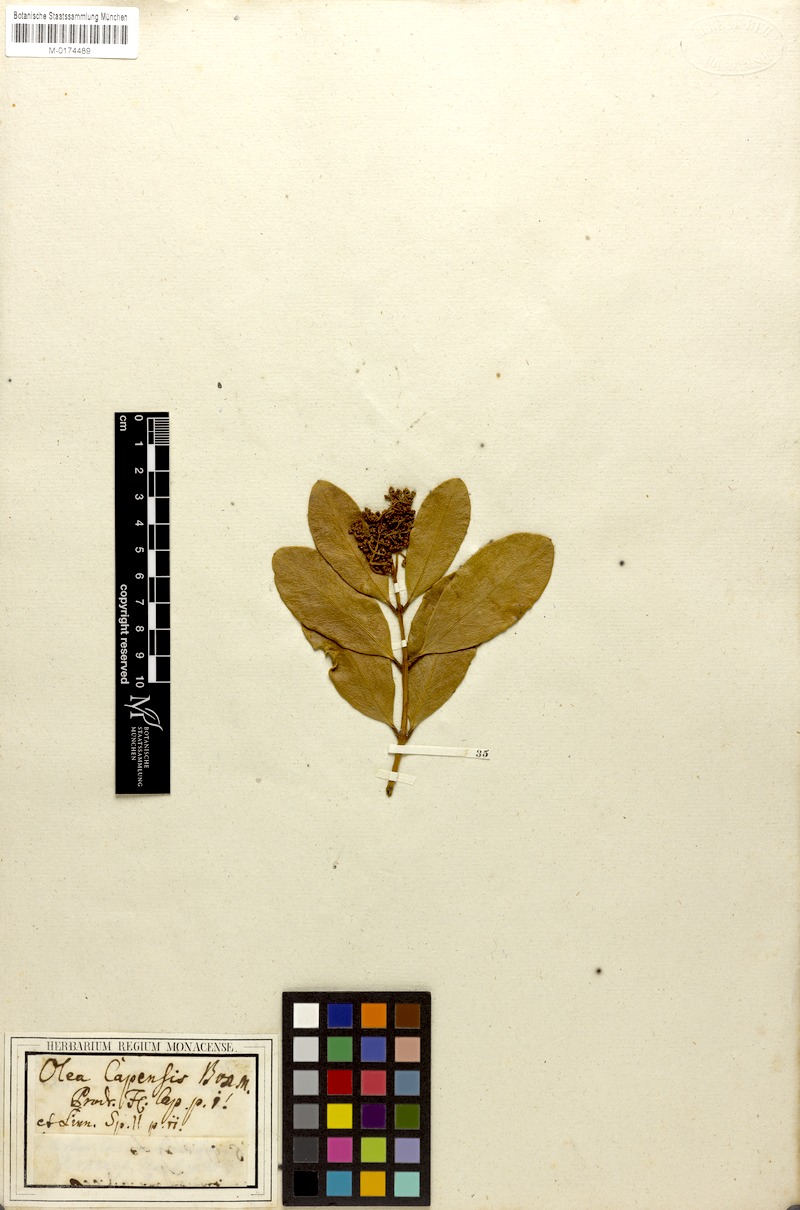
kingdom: Plantae
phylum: Tracheophyta
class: Magnoliopsida
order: Lamiales
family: Oleaceae
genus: Olea
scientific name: Olea capensis
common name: Black ironwood
